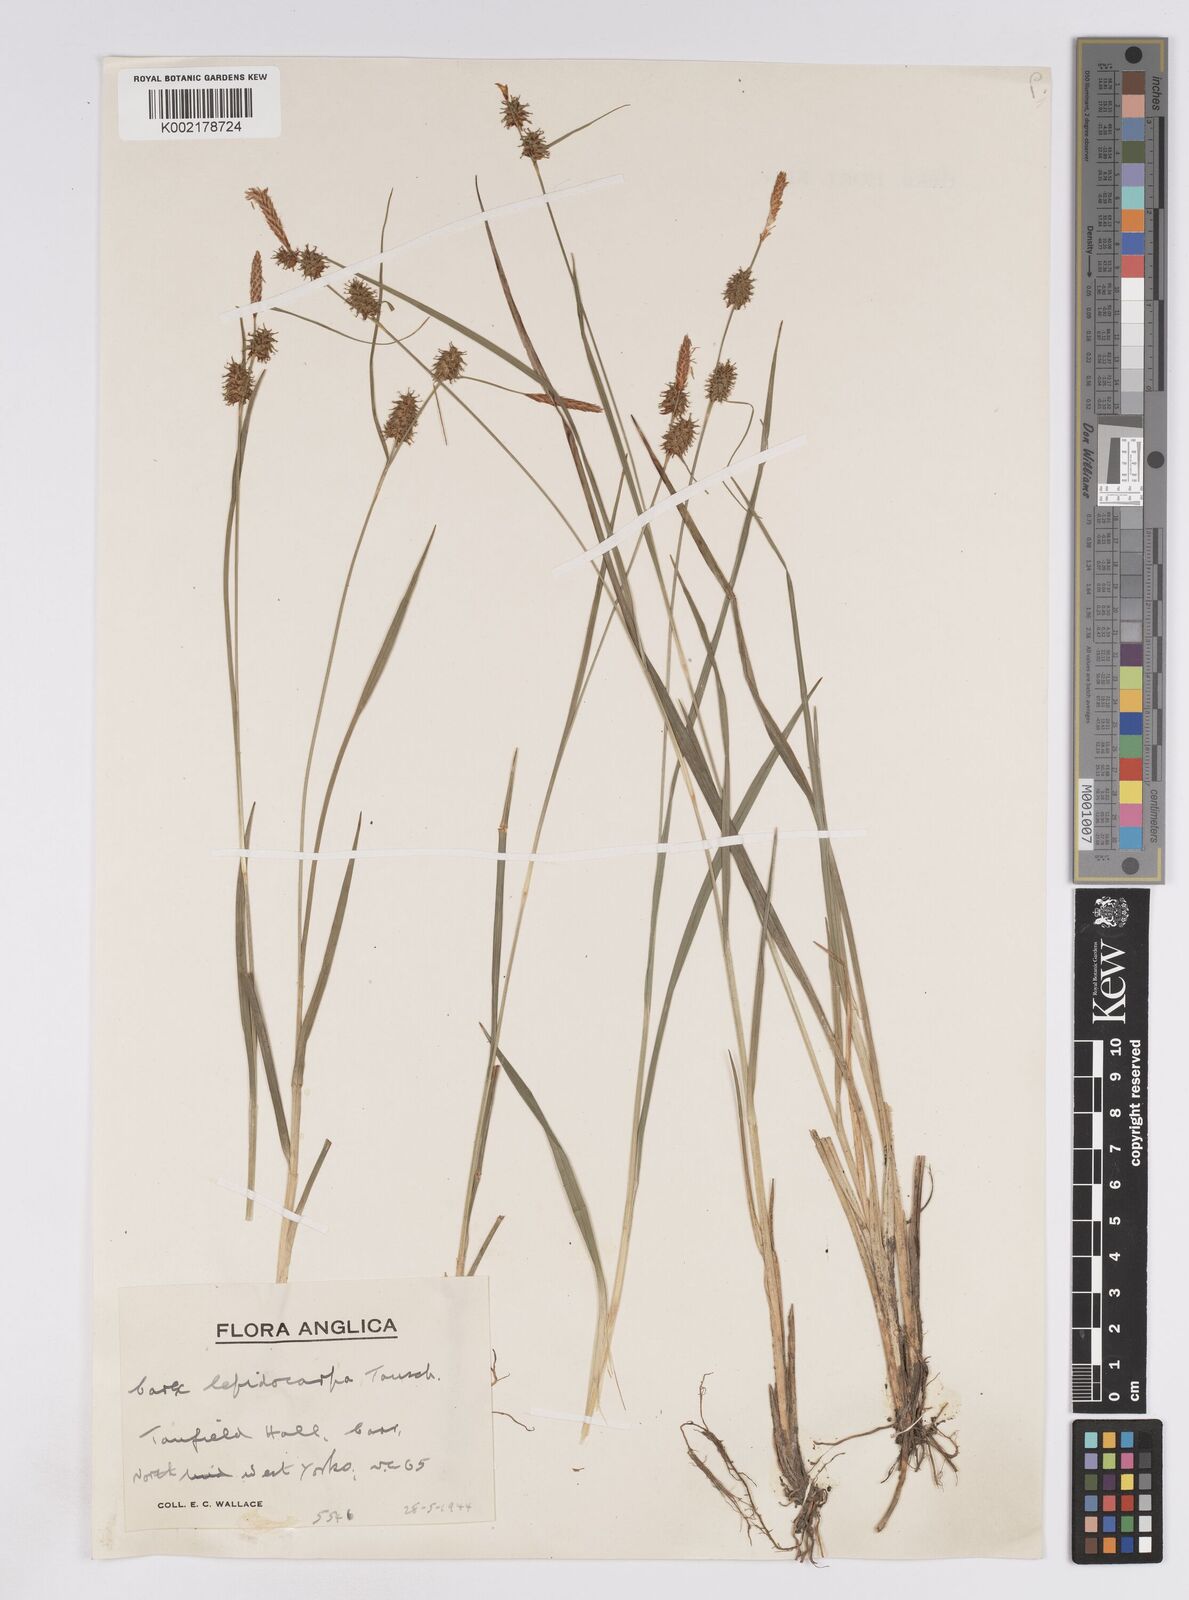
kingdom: Plantae
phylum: Tracheophyta
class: Liliopsida
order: Poales
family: Cyperaceae
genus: Carex
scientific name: Carex lepidocarpa
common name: Long-stalked yellow-sedge
